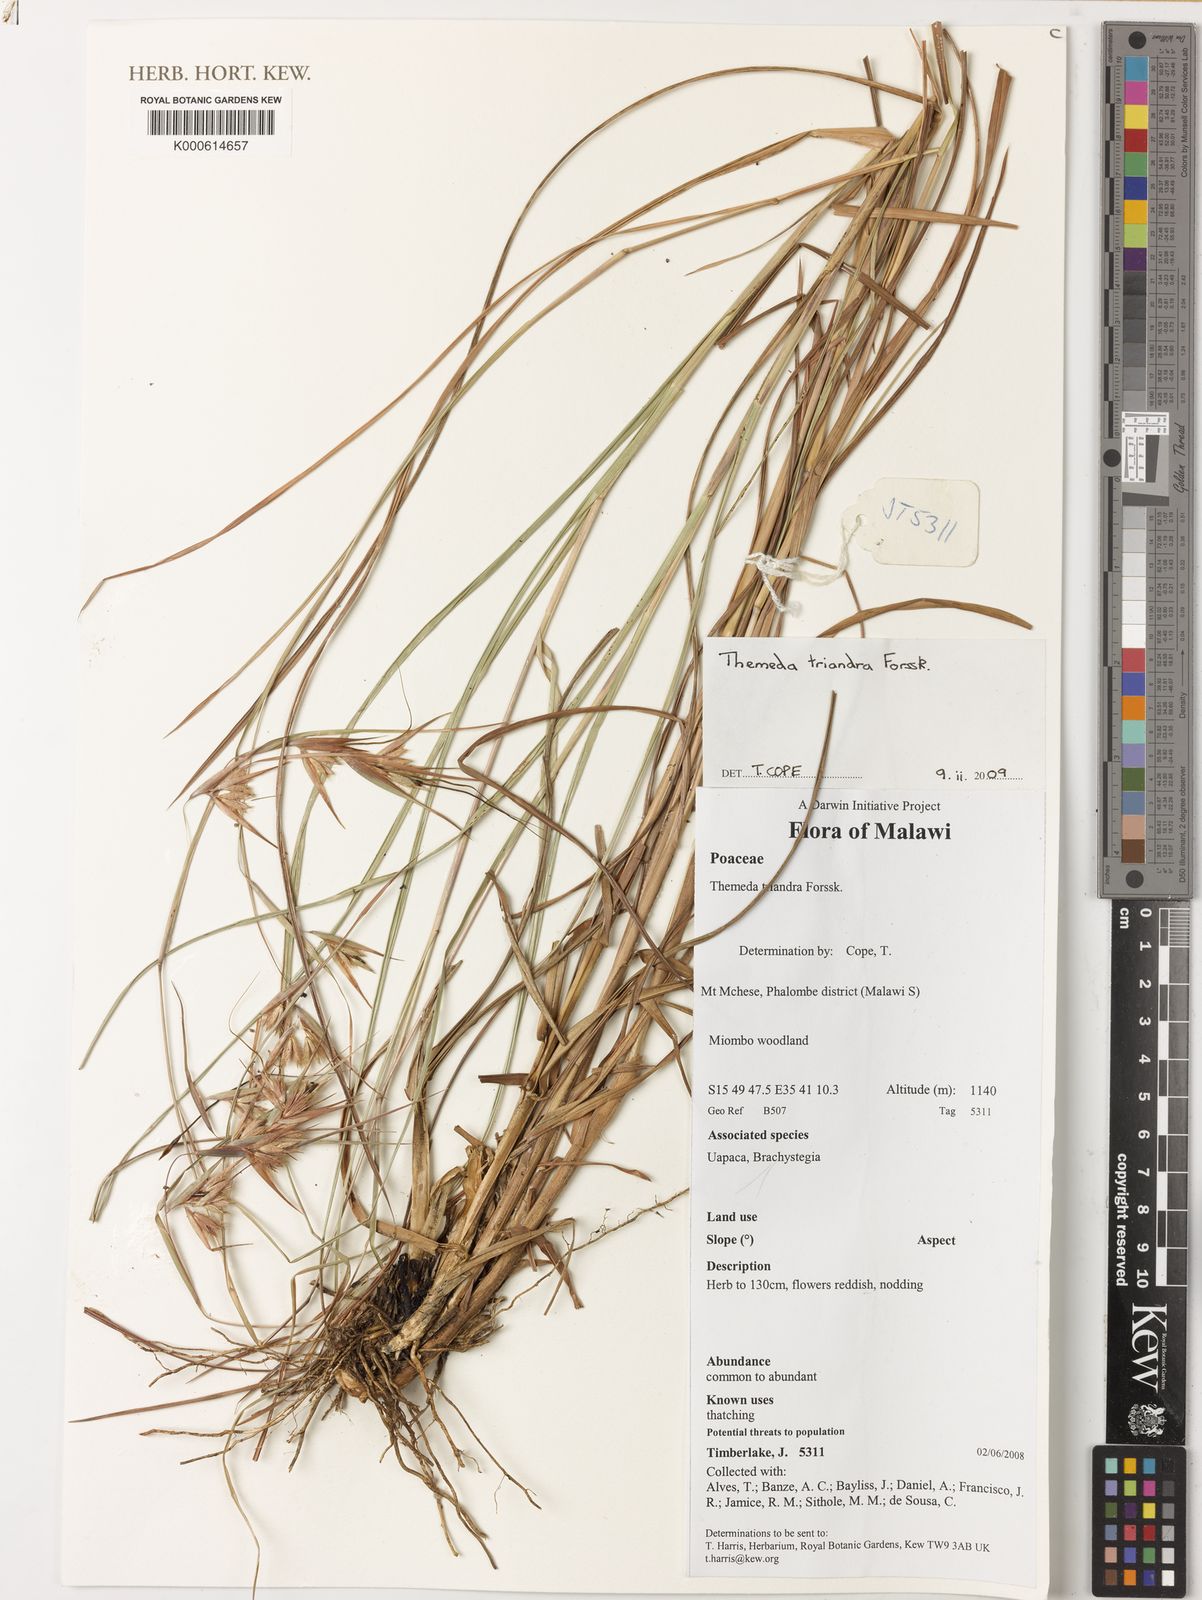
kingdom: Plantae
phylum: Tracheophyta
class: Liliopsida
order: Poales
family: Poaceae
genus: Themeda
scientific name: Themeda triandra
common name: Kangaroo grass
